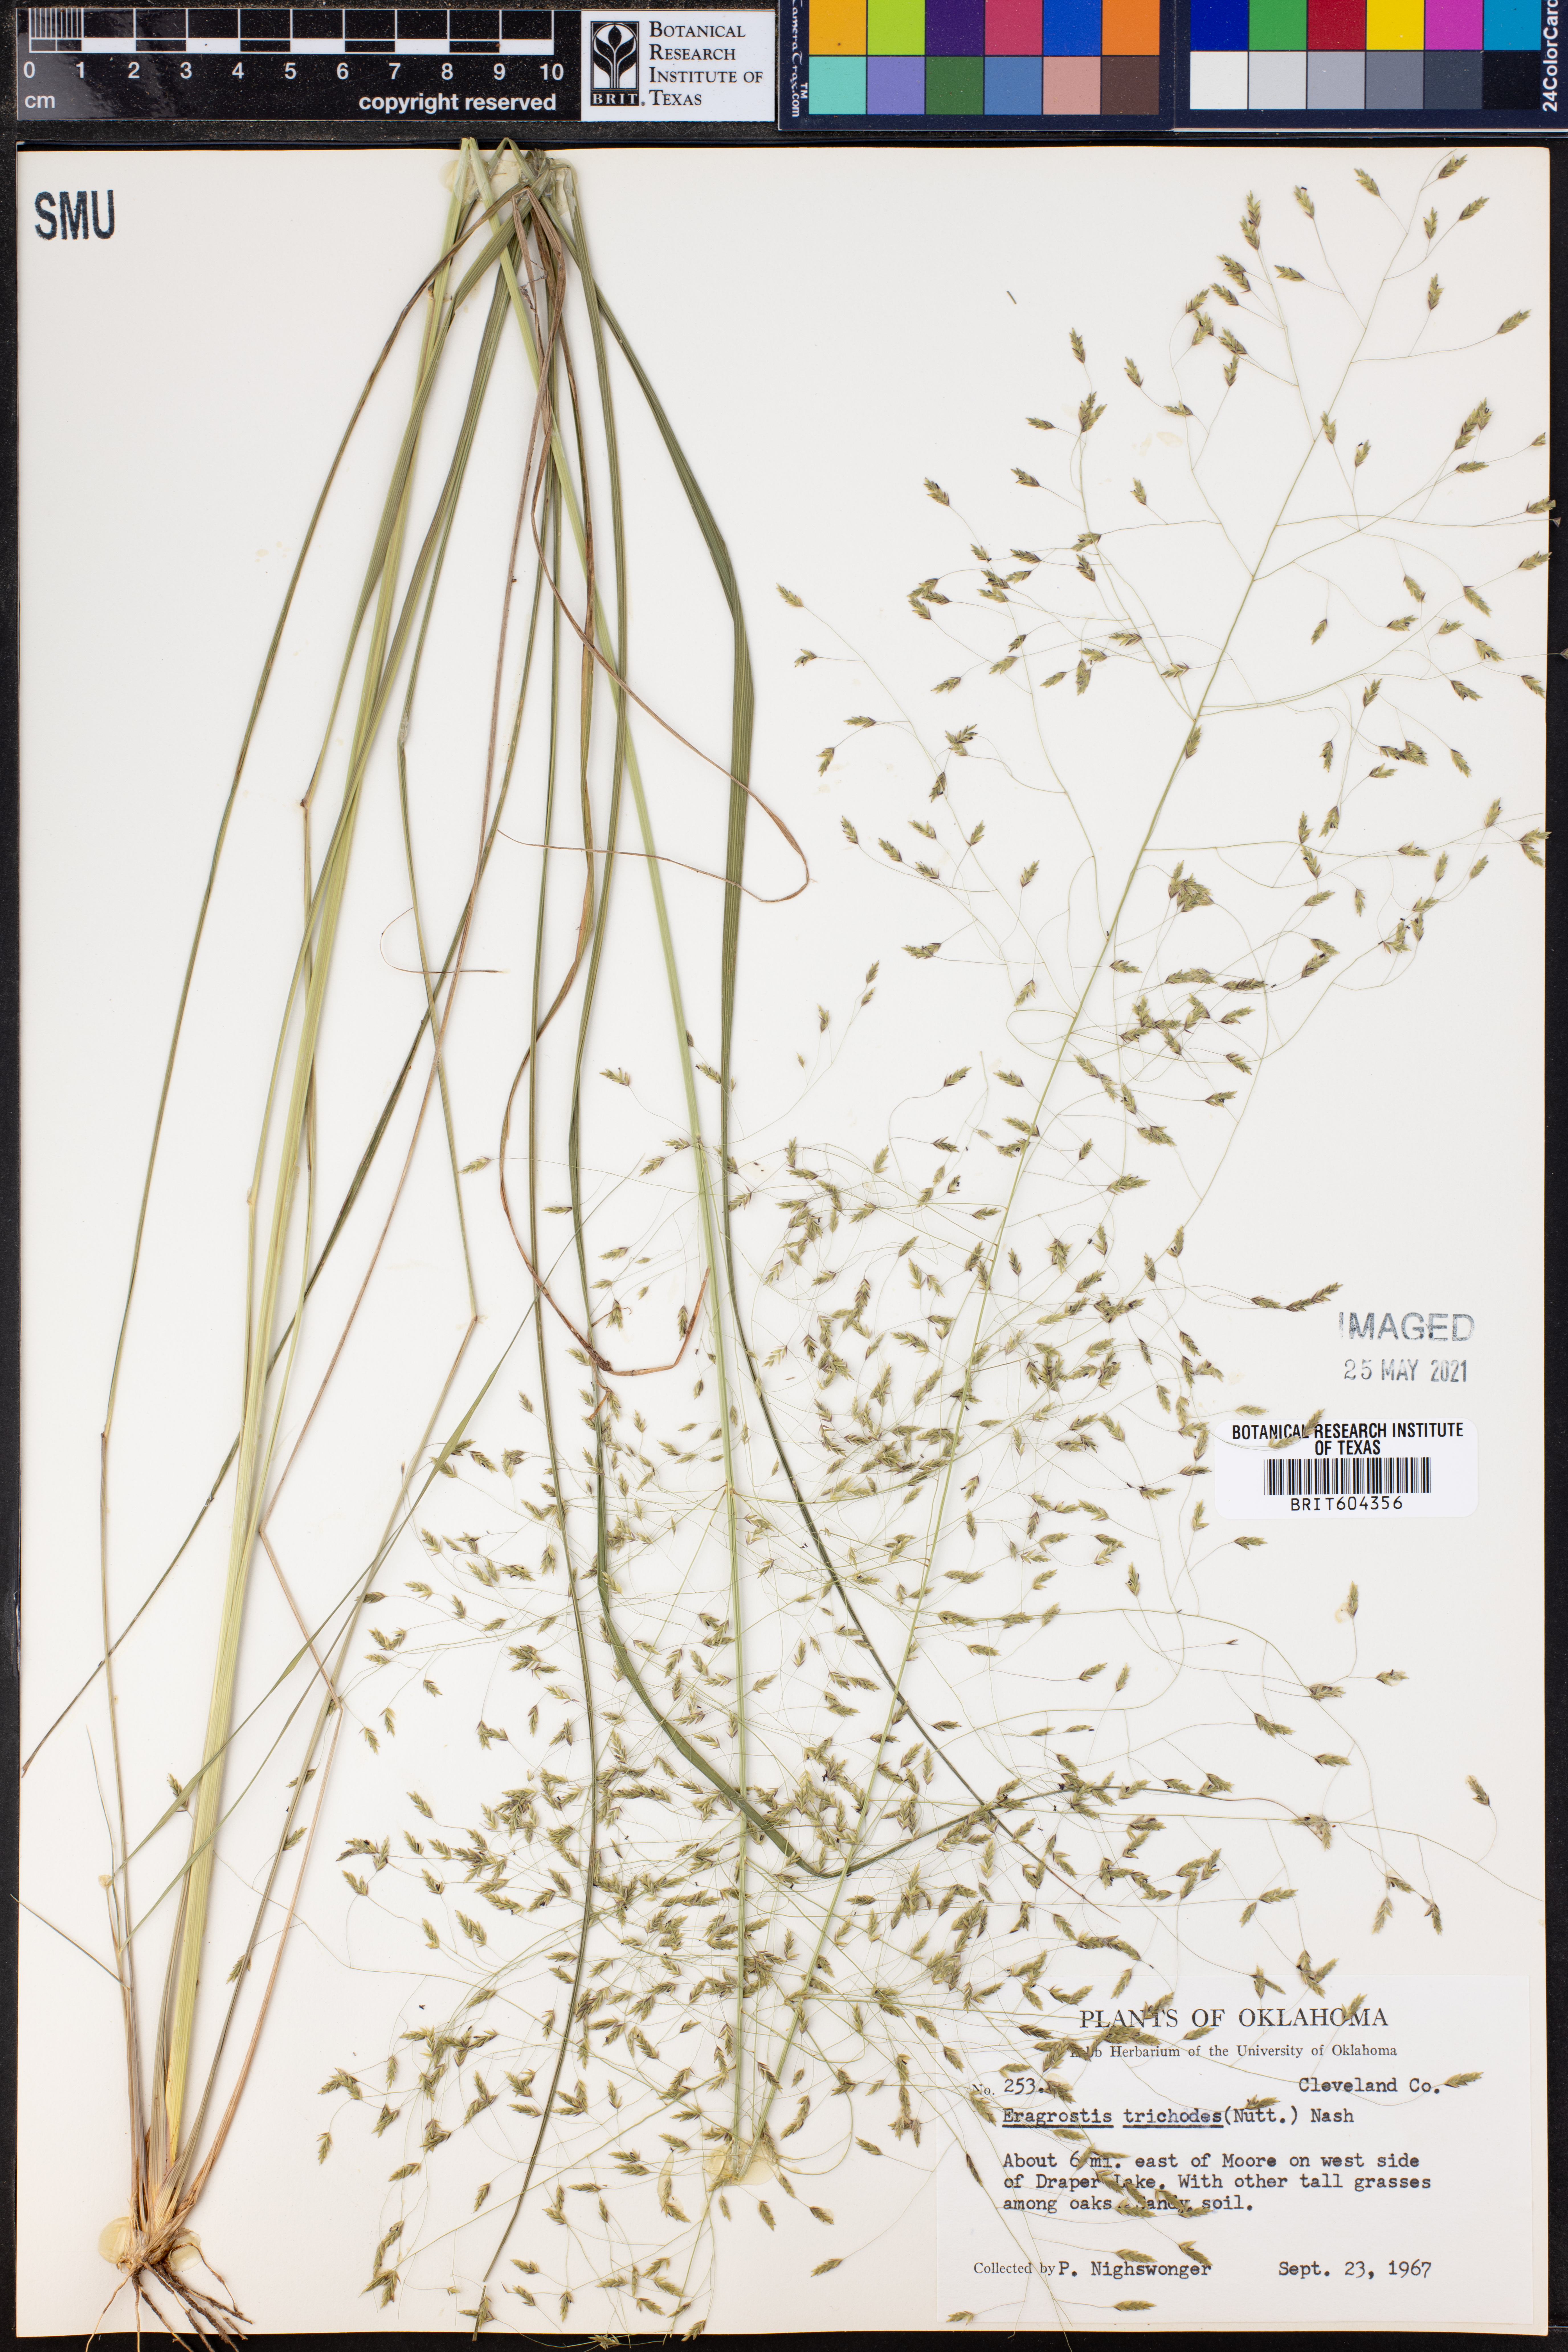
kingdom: Plantae
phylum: Tracheophyta
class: Liliopsida
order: Poales
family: Poaceae
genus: Eragrostis
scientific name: Eragrostis trichodes
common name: Sand love grass
